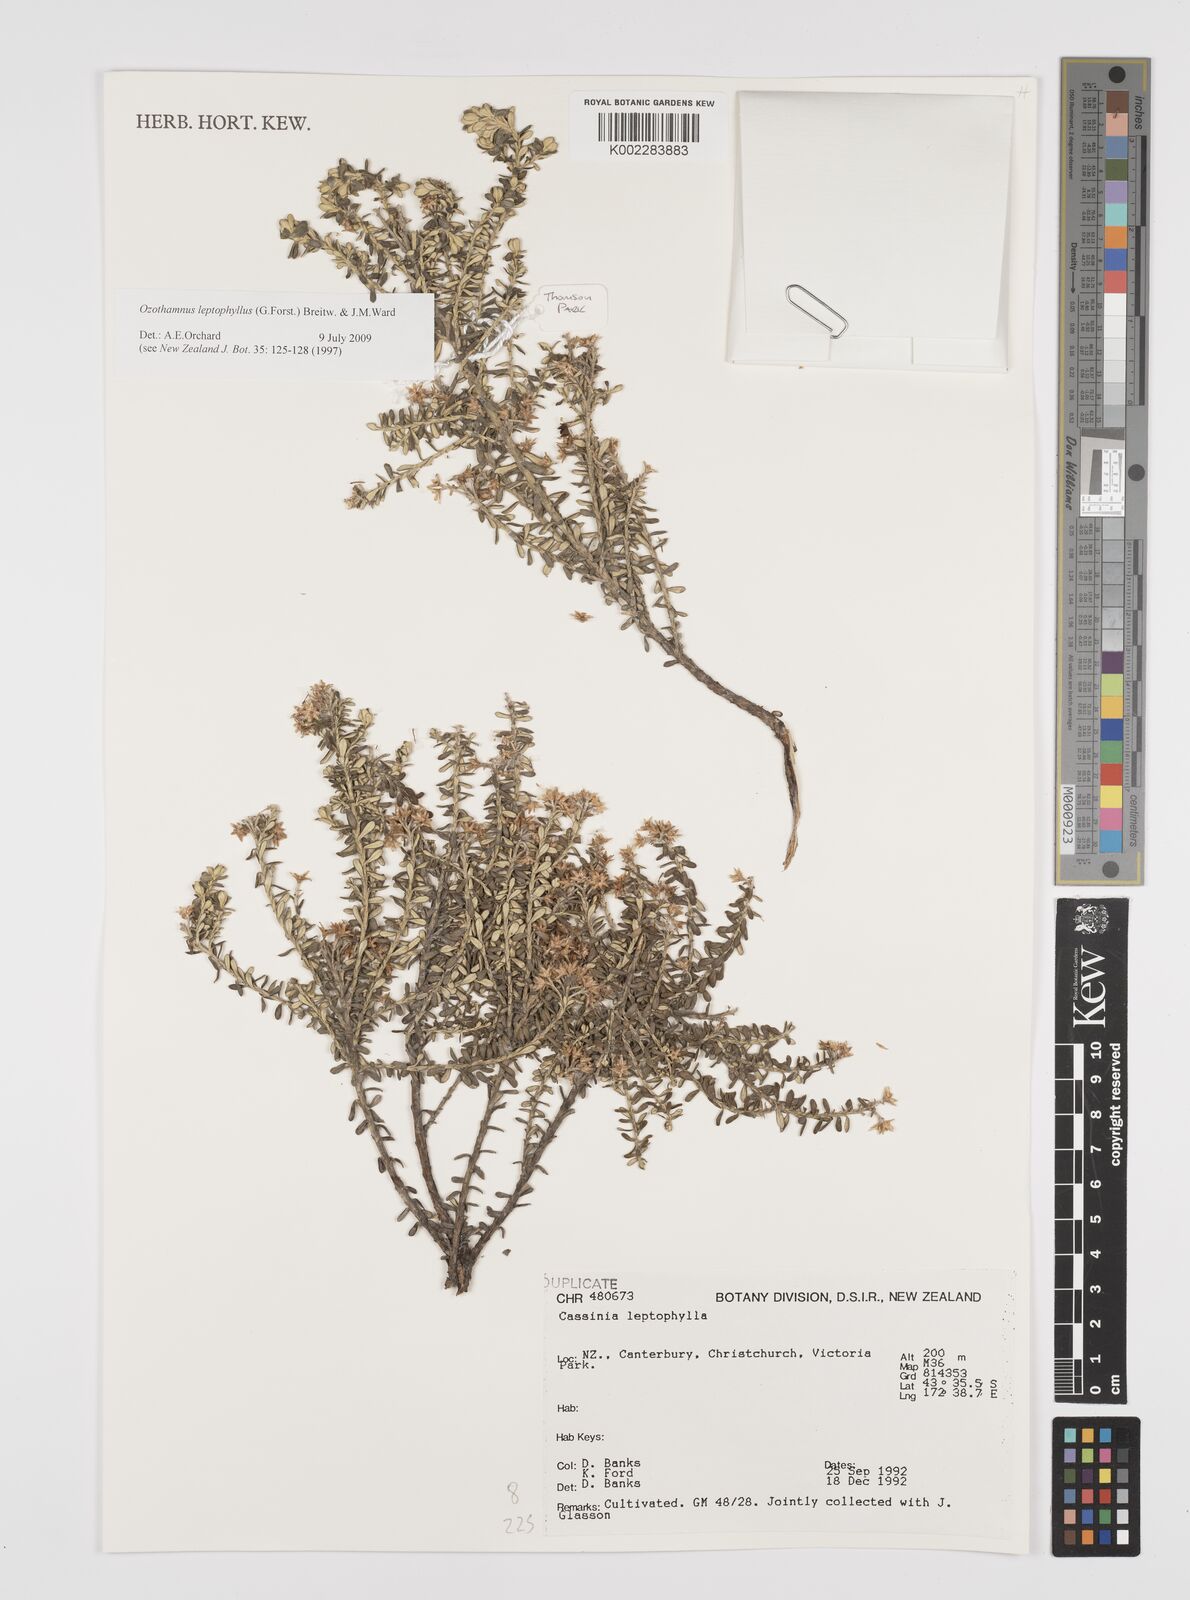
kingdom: Plantae
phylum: Tracheophyta
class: Magnoliopsida
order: Asterales
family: Asteraceae
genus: Ozothamnus
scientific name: Ozothamnus leptophyllus
